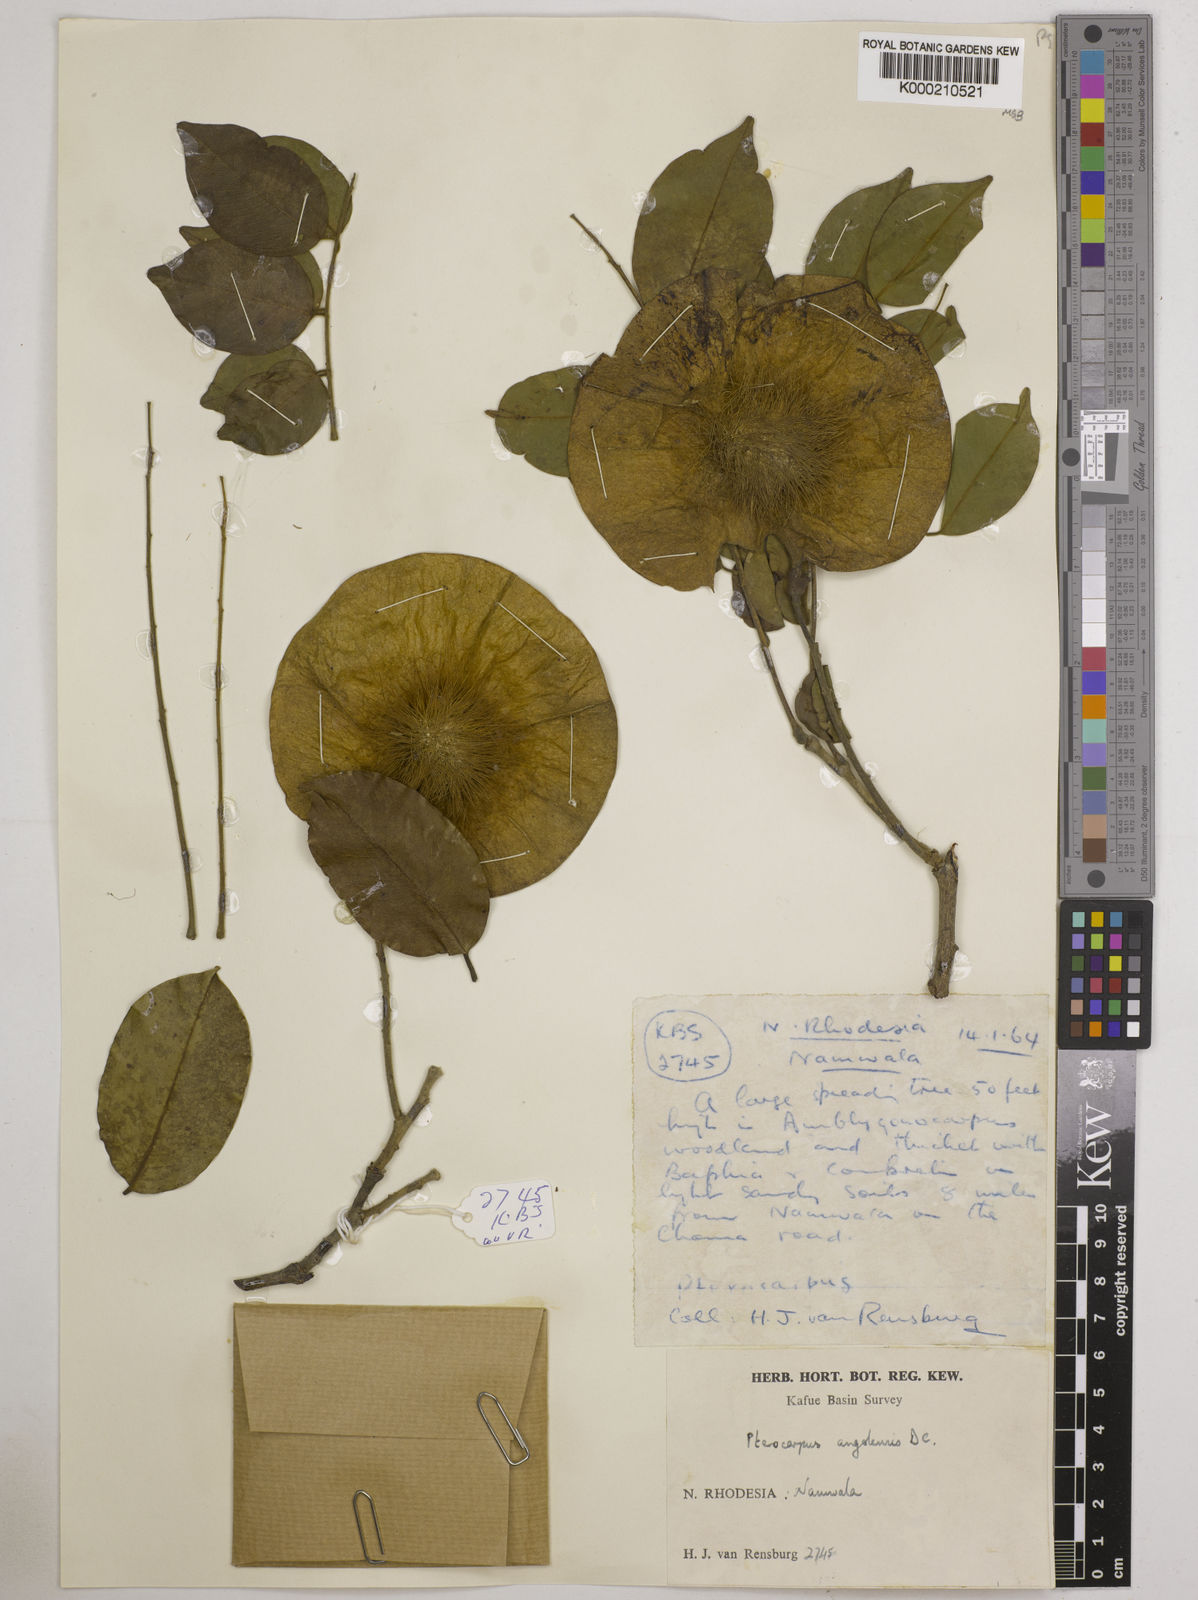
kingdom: Plantae
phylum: Tracheophyta
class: Magnoliopsida
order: Fabales
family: Fabaceae
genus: Pterocarpus
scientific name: Pterocarpus angolensis
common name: Bloodwood tree
